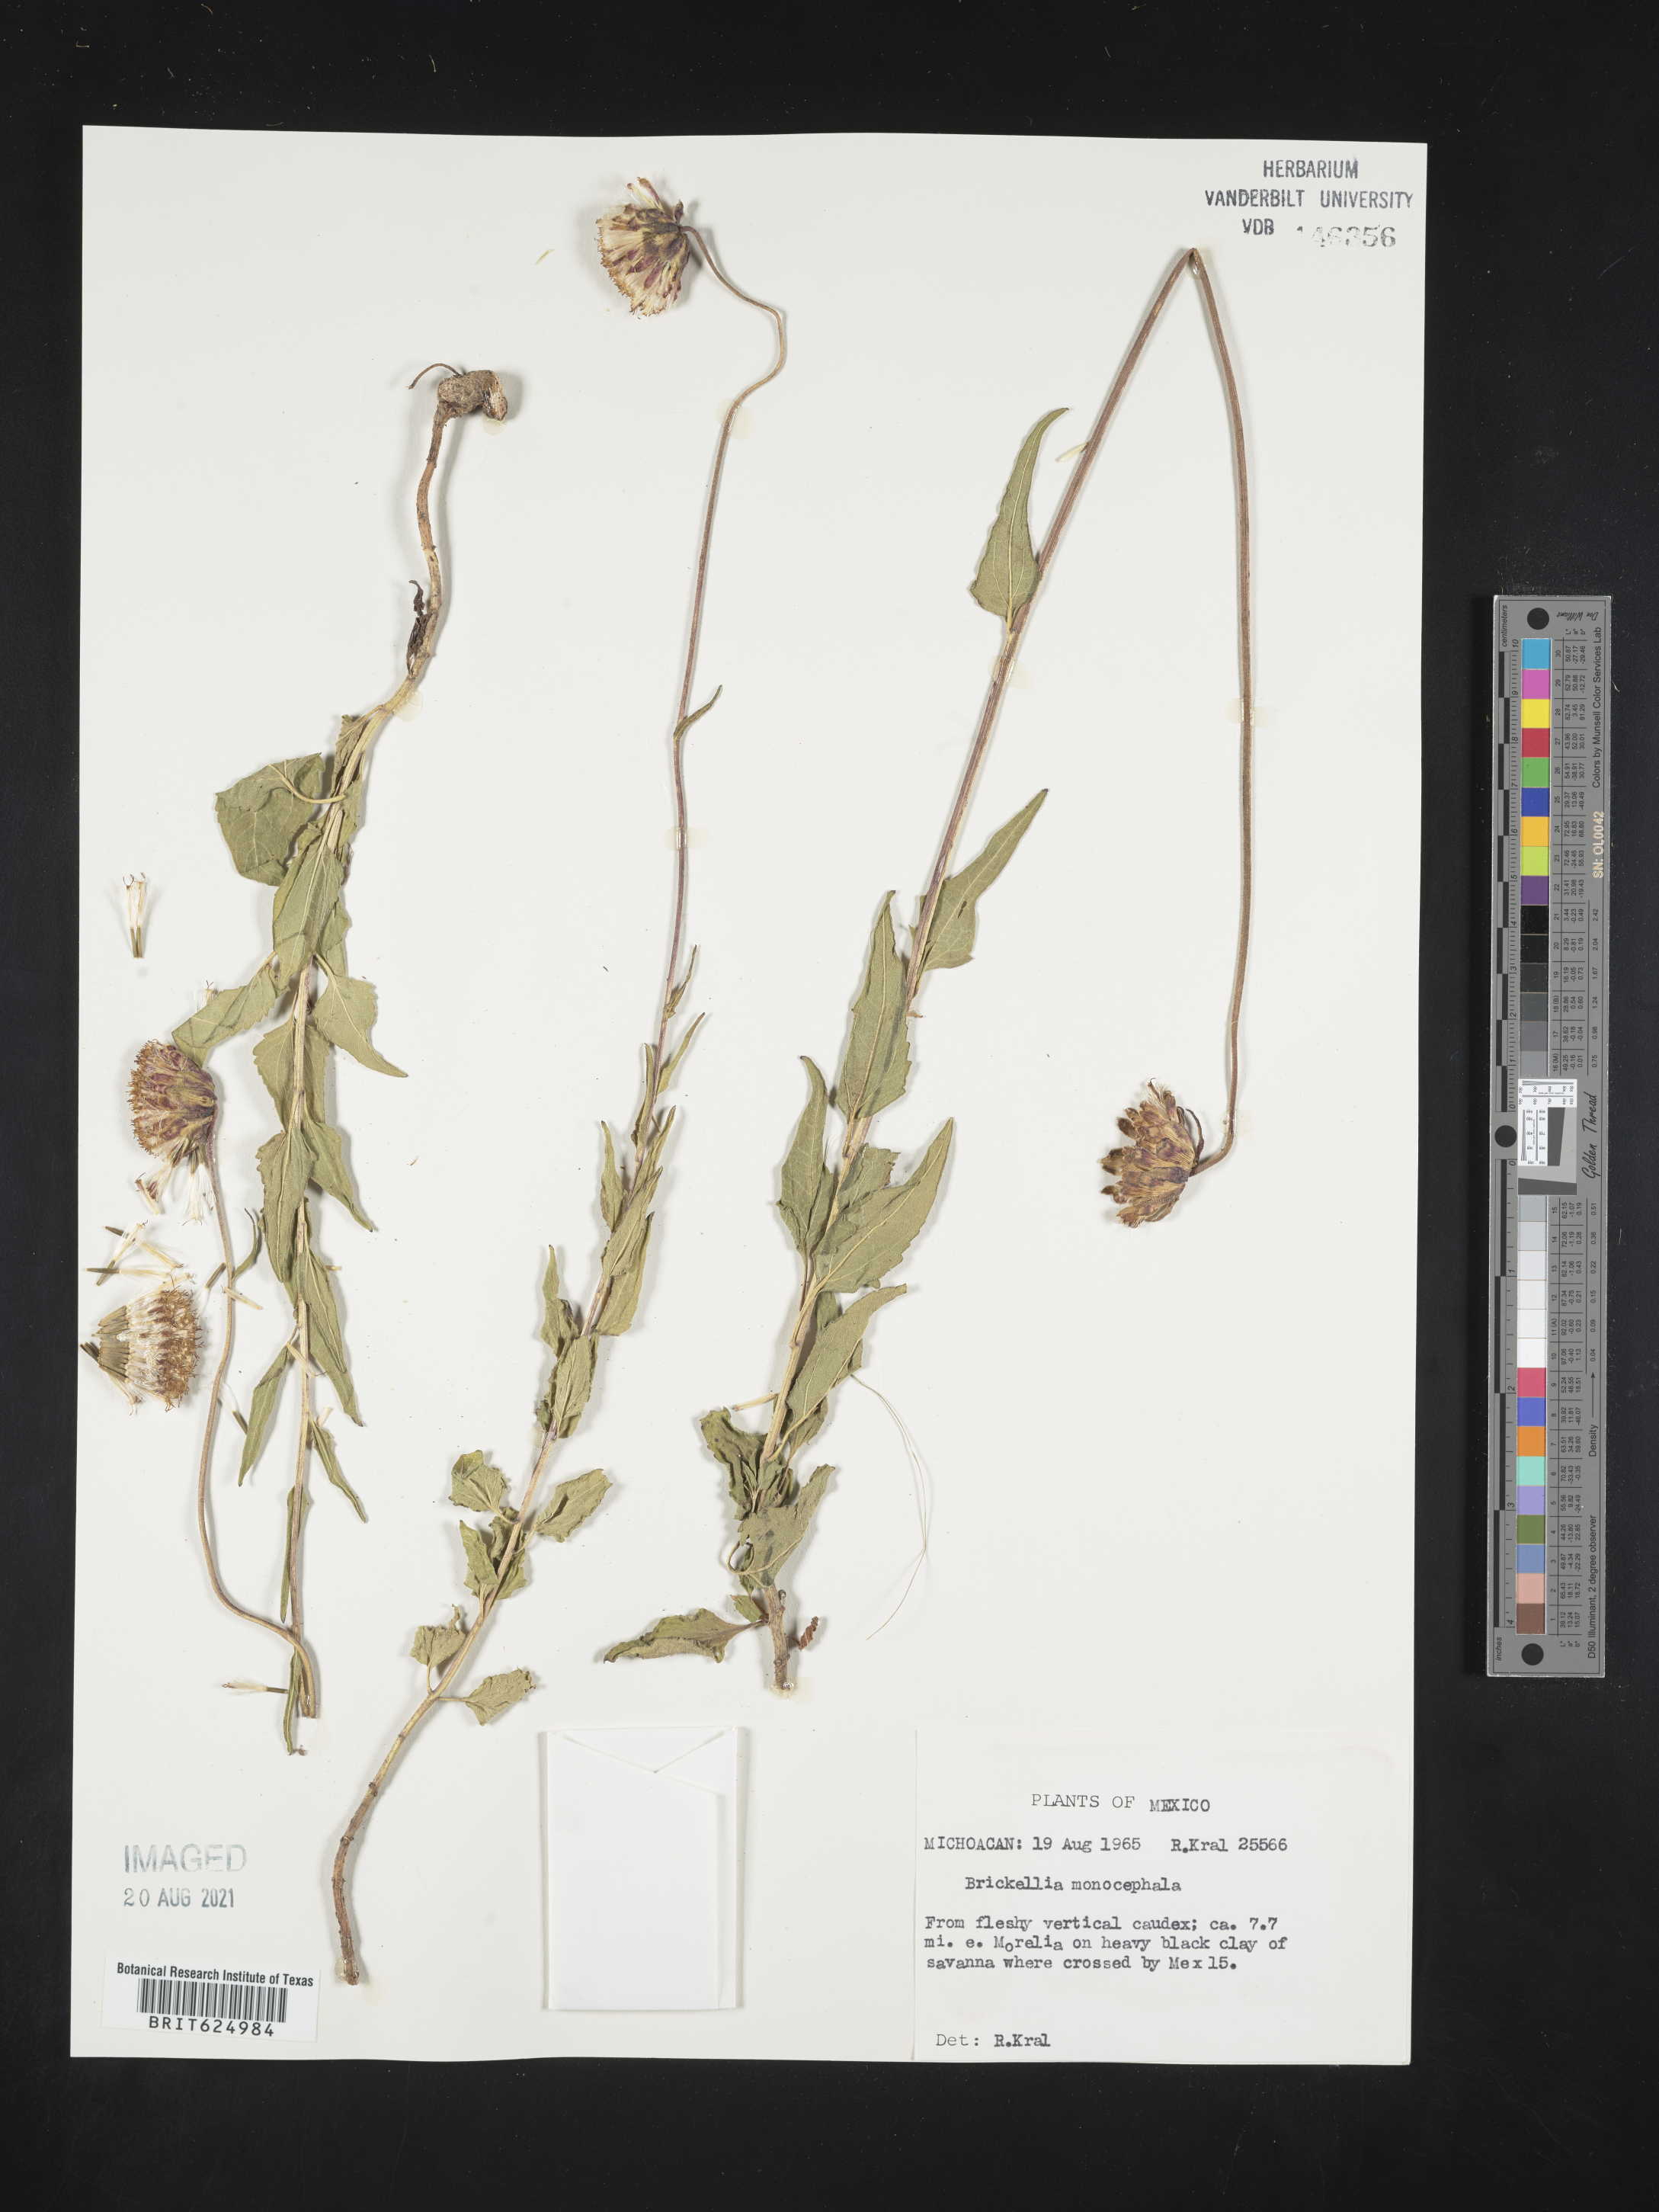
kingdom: Plantae
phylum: Tracheophyta
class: Magnoliopsida
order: Asterales
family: Asteraceae
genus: Brickellia
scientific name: Brickellia
